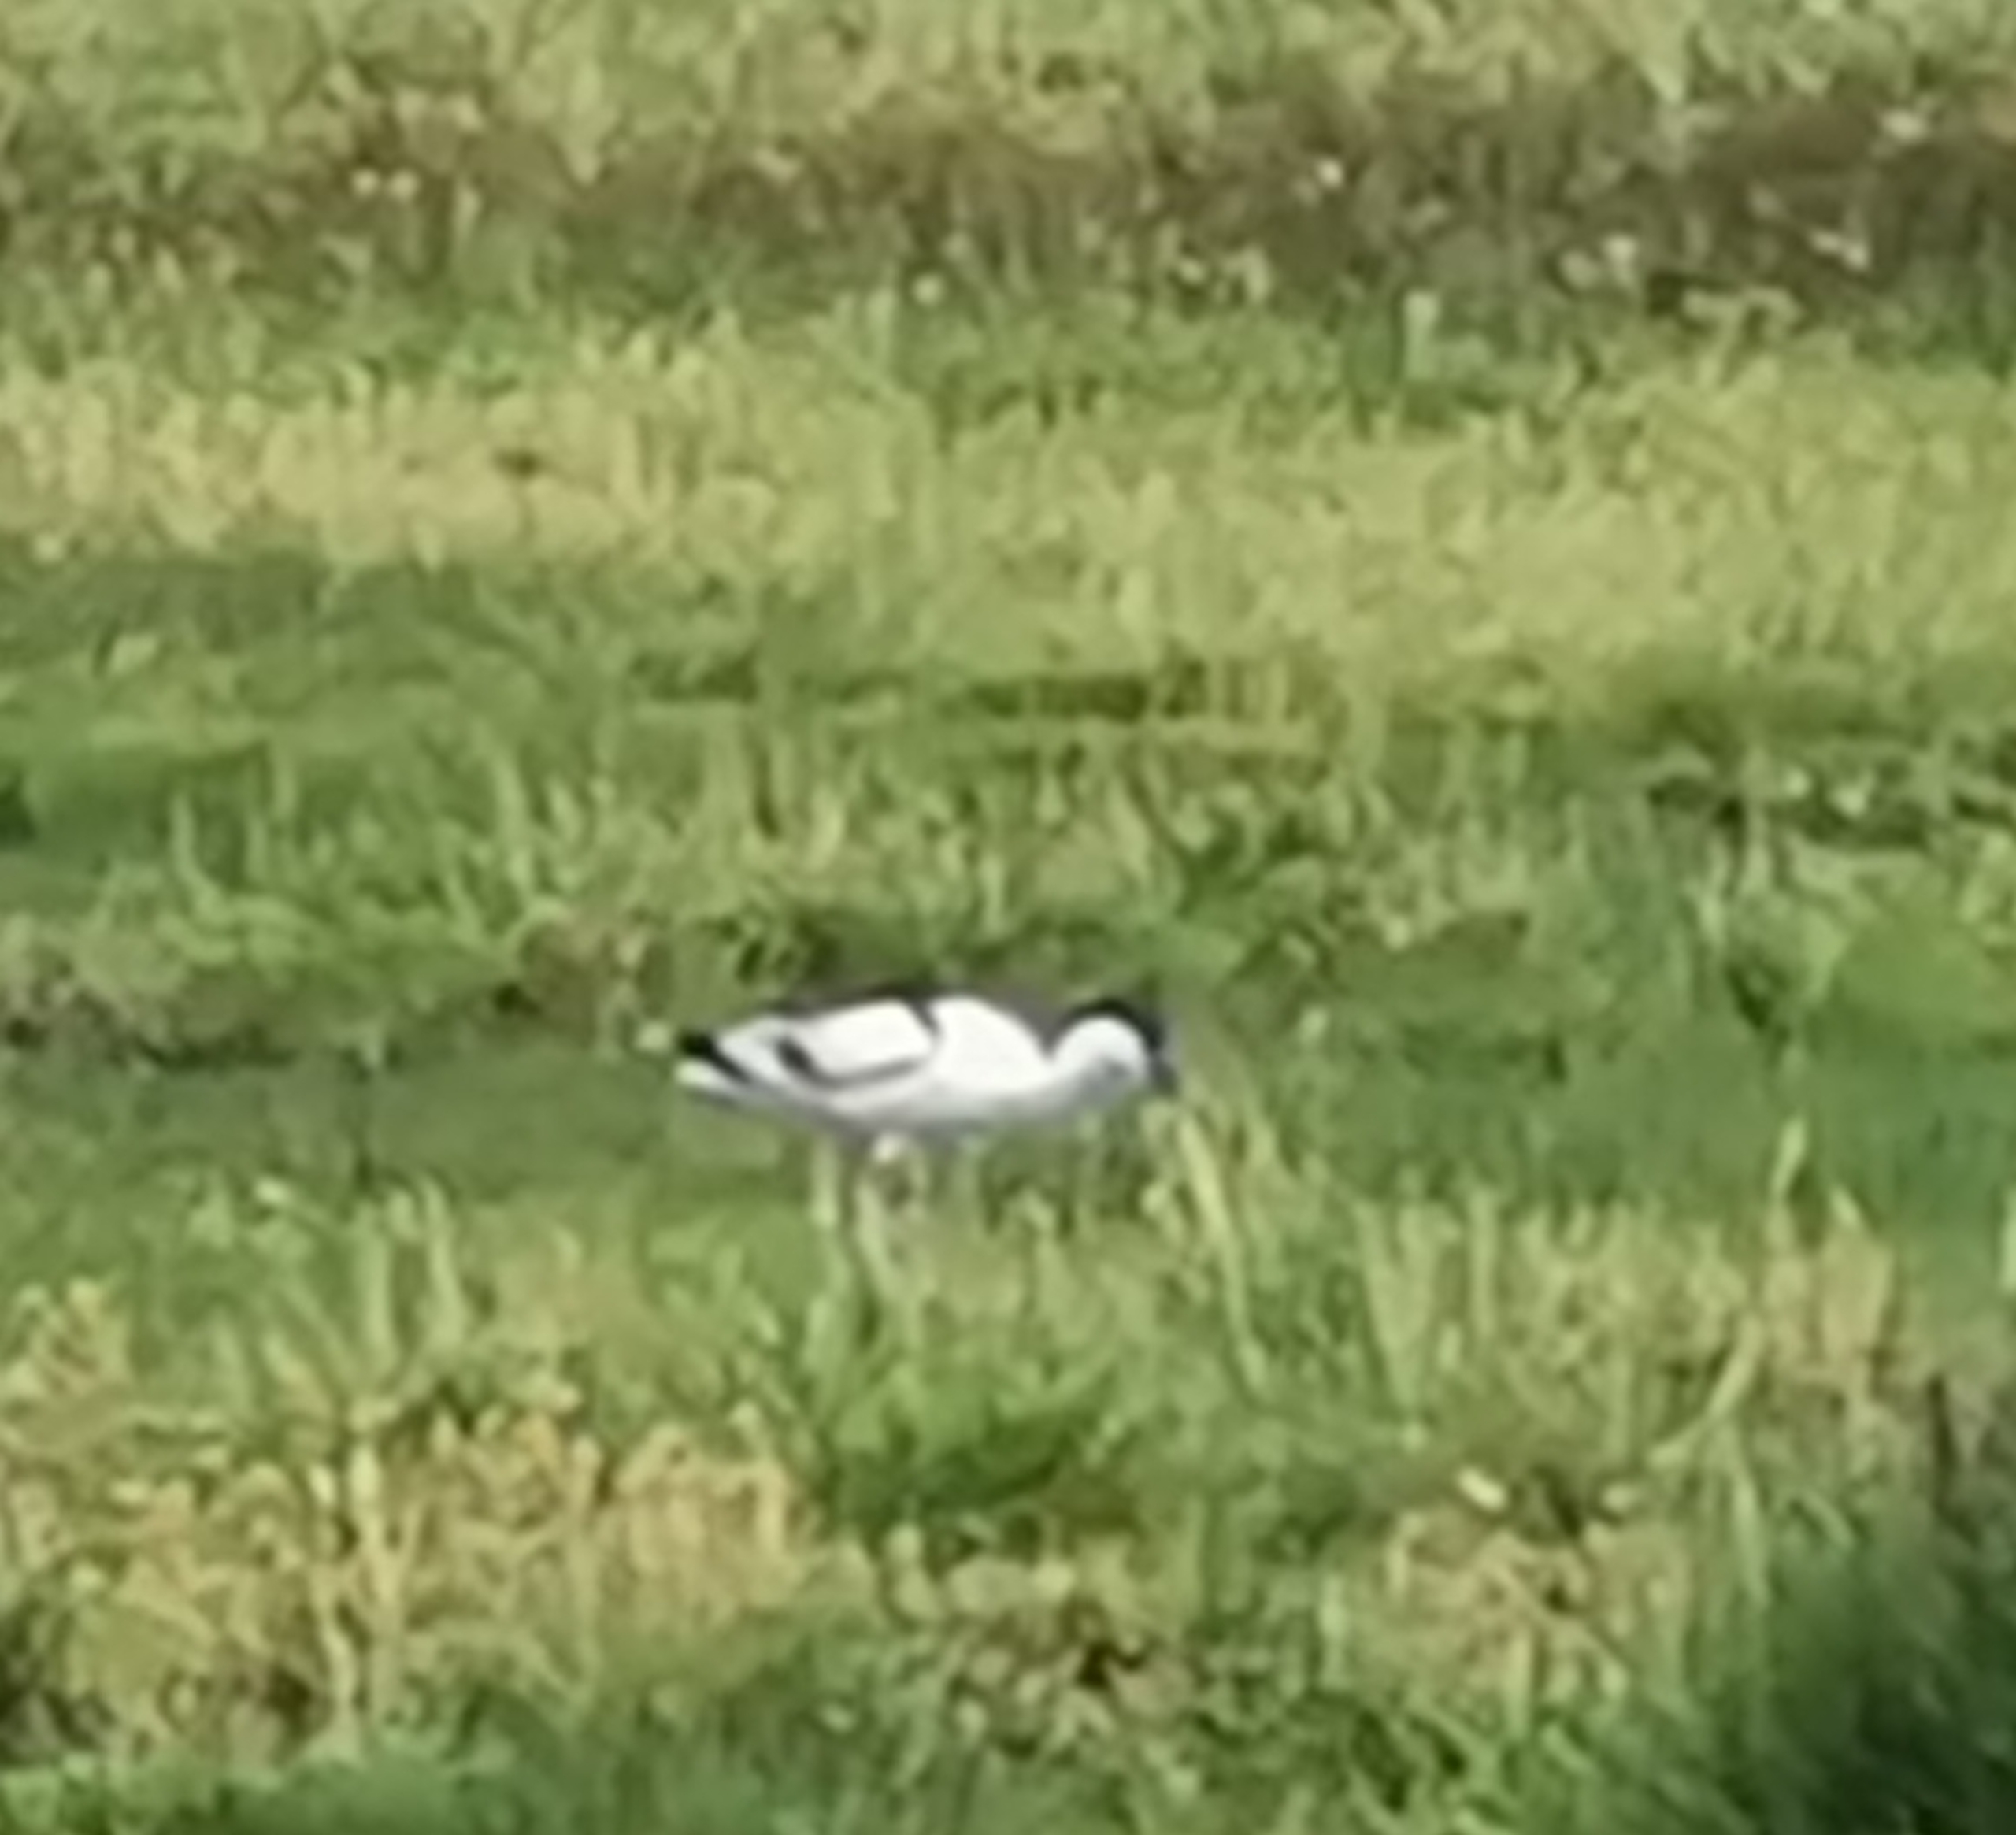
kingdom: Animalia
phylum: Chordata
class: Aves
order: Charadriiformes
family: Recurvirostridae
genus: Recurvirostra
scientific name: Recurvirostra avosetta
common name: Klyde
